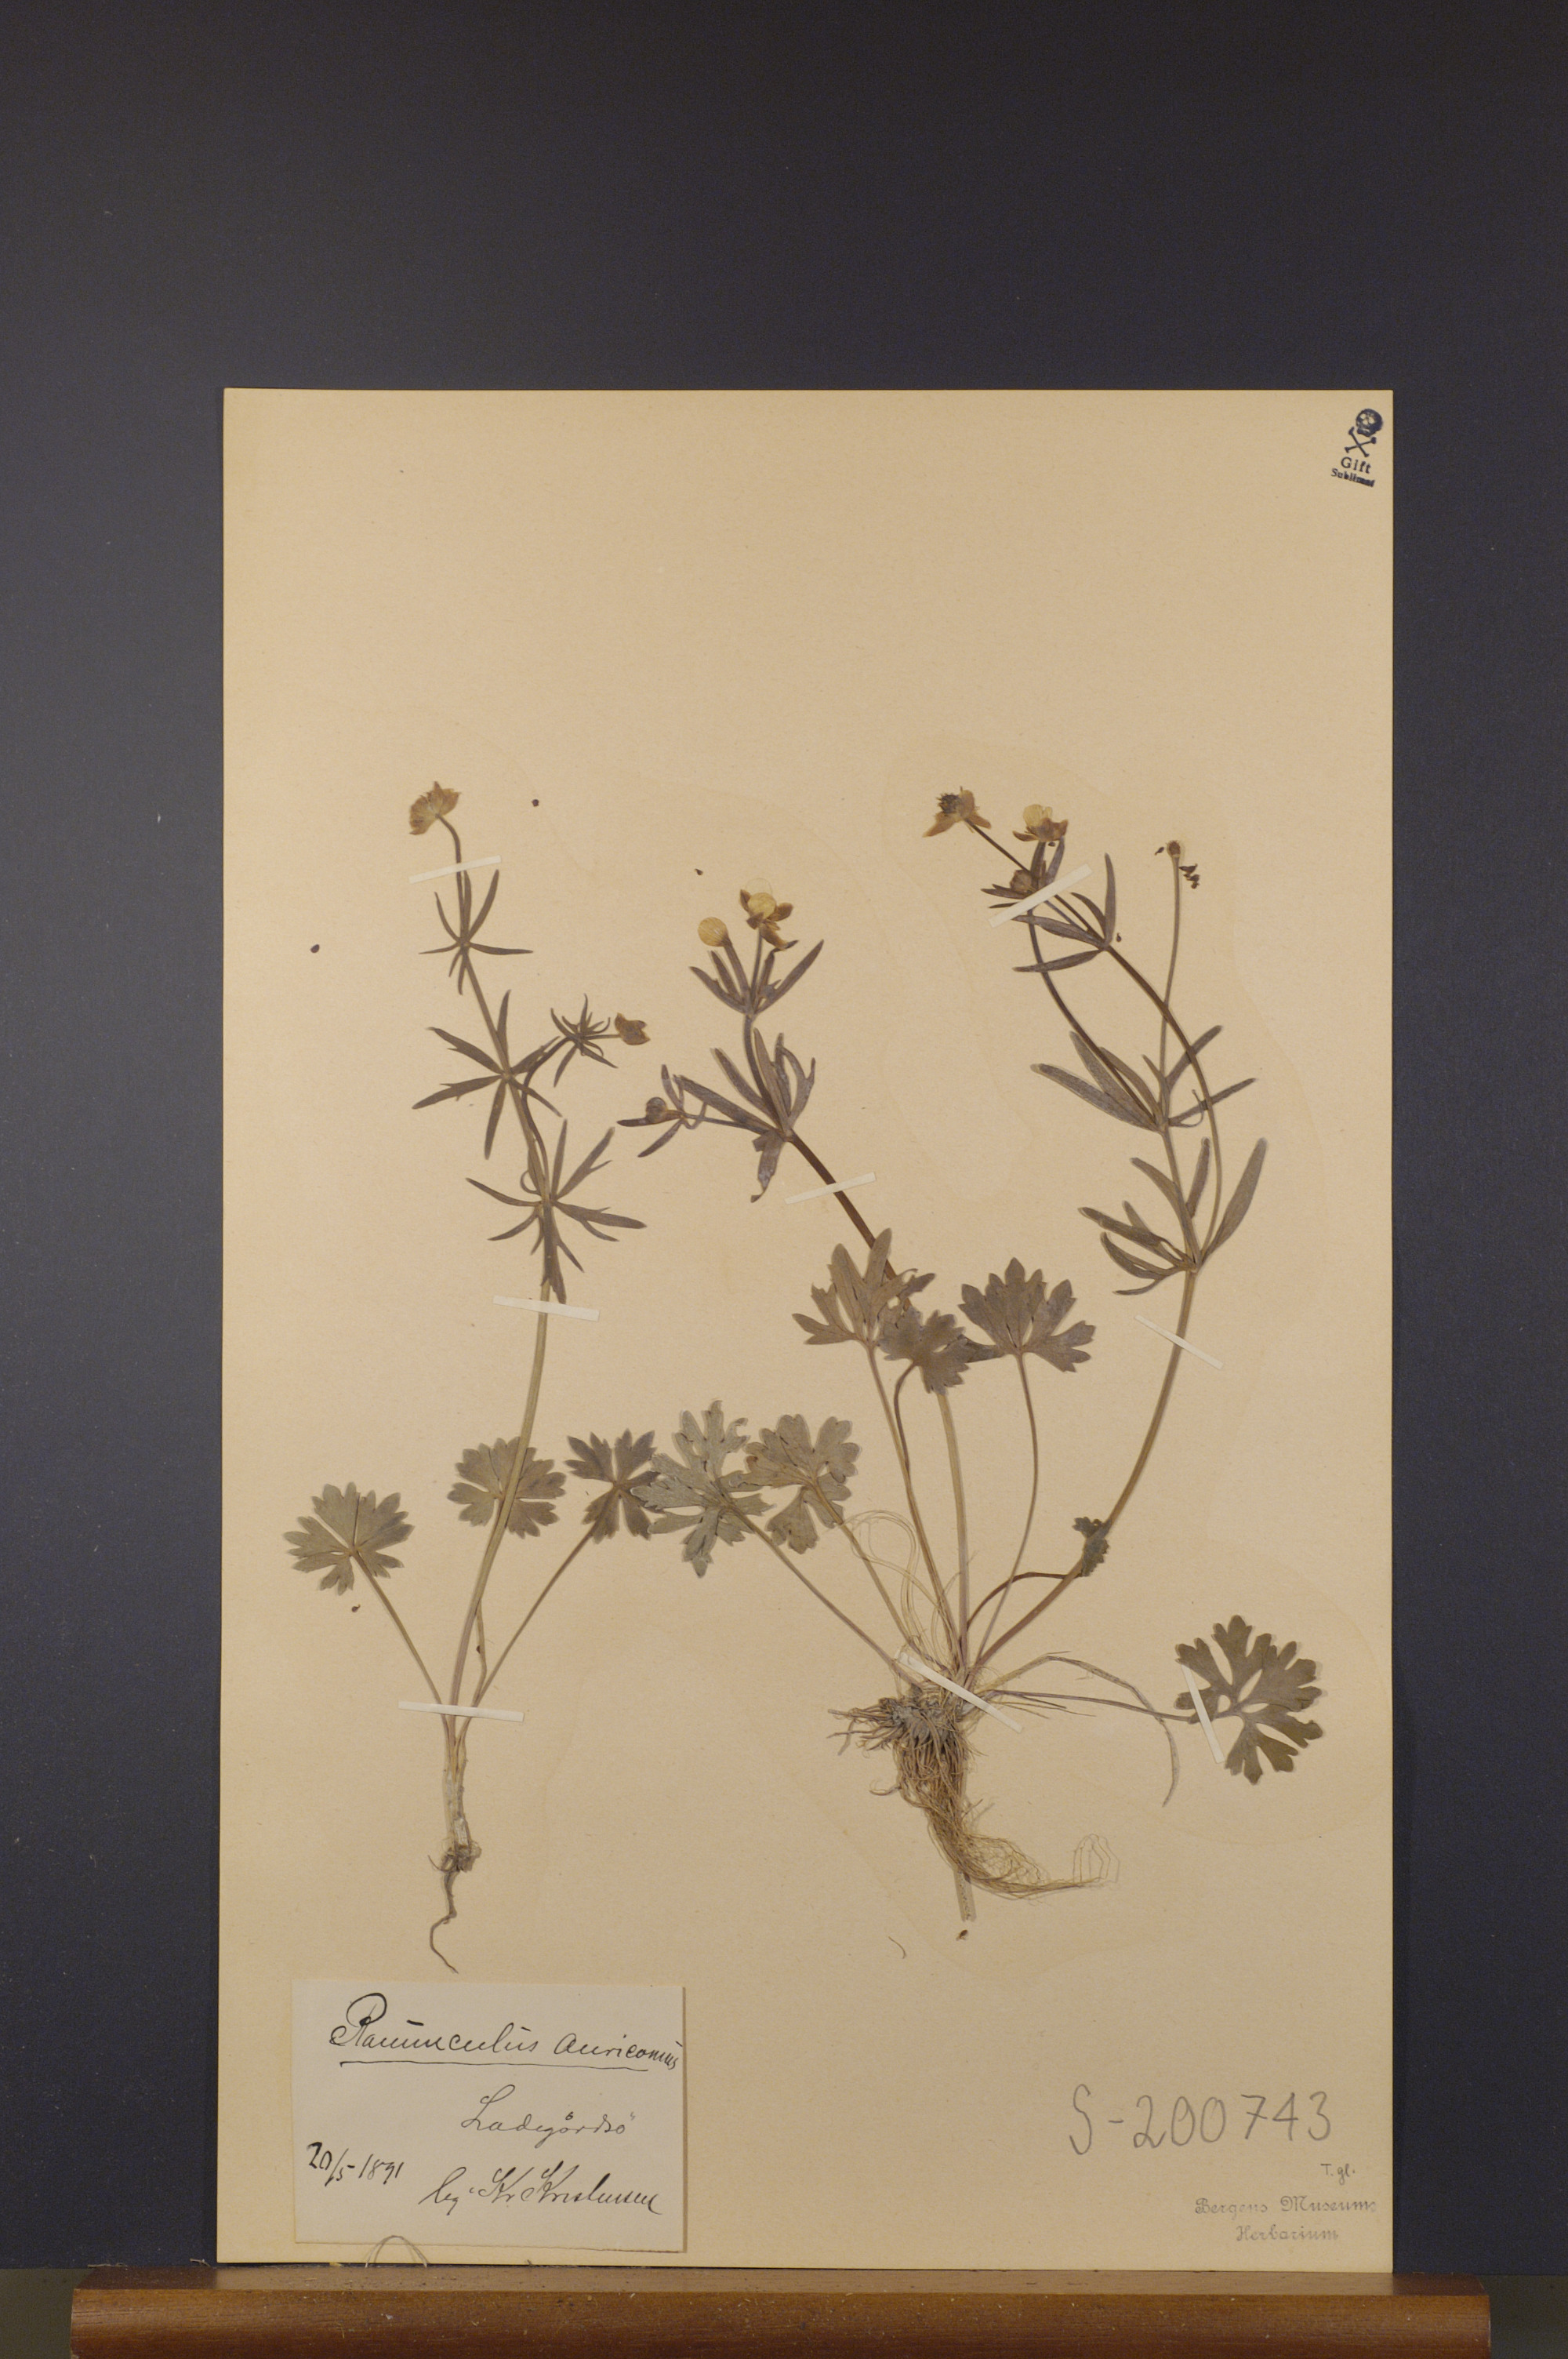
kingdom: Plantae
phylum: Tracheophyta
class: Magnoliopsida
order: Ranunculales
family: Ranunculaceae
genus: Ranunculus
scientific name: Ranunculus auricomus
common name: Goldilocks buttercup
